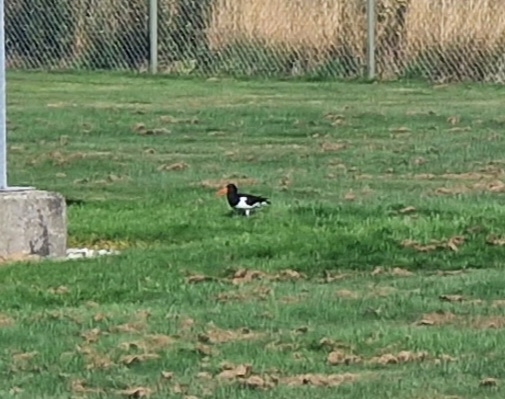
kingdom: Animalia
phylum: Chordata
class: Aves
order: Charadriiformes
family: Haematopodidae
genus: Haematopus
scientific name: Haematopus ostralegus
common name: Strandskade
